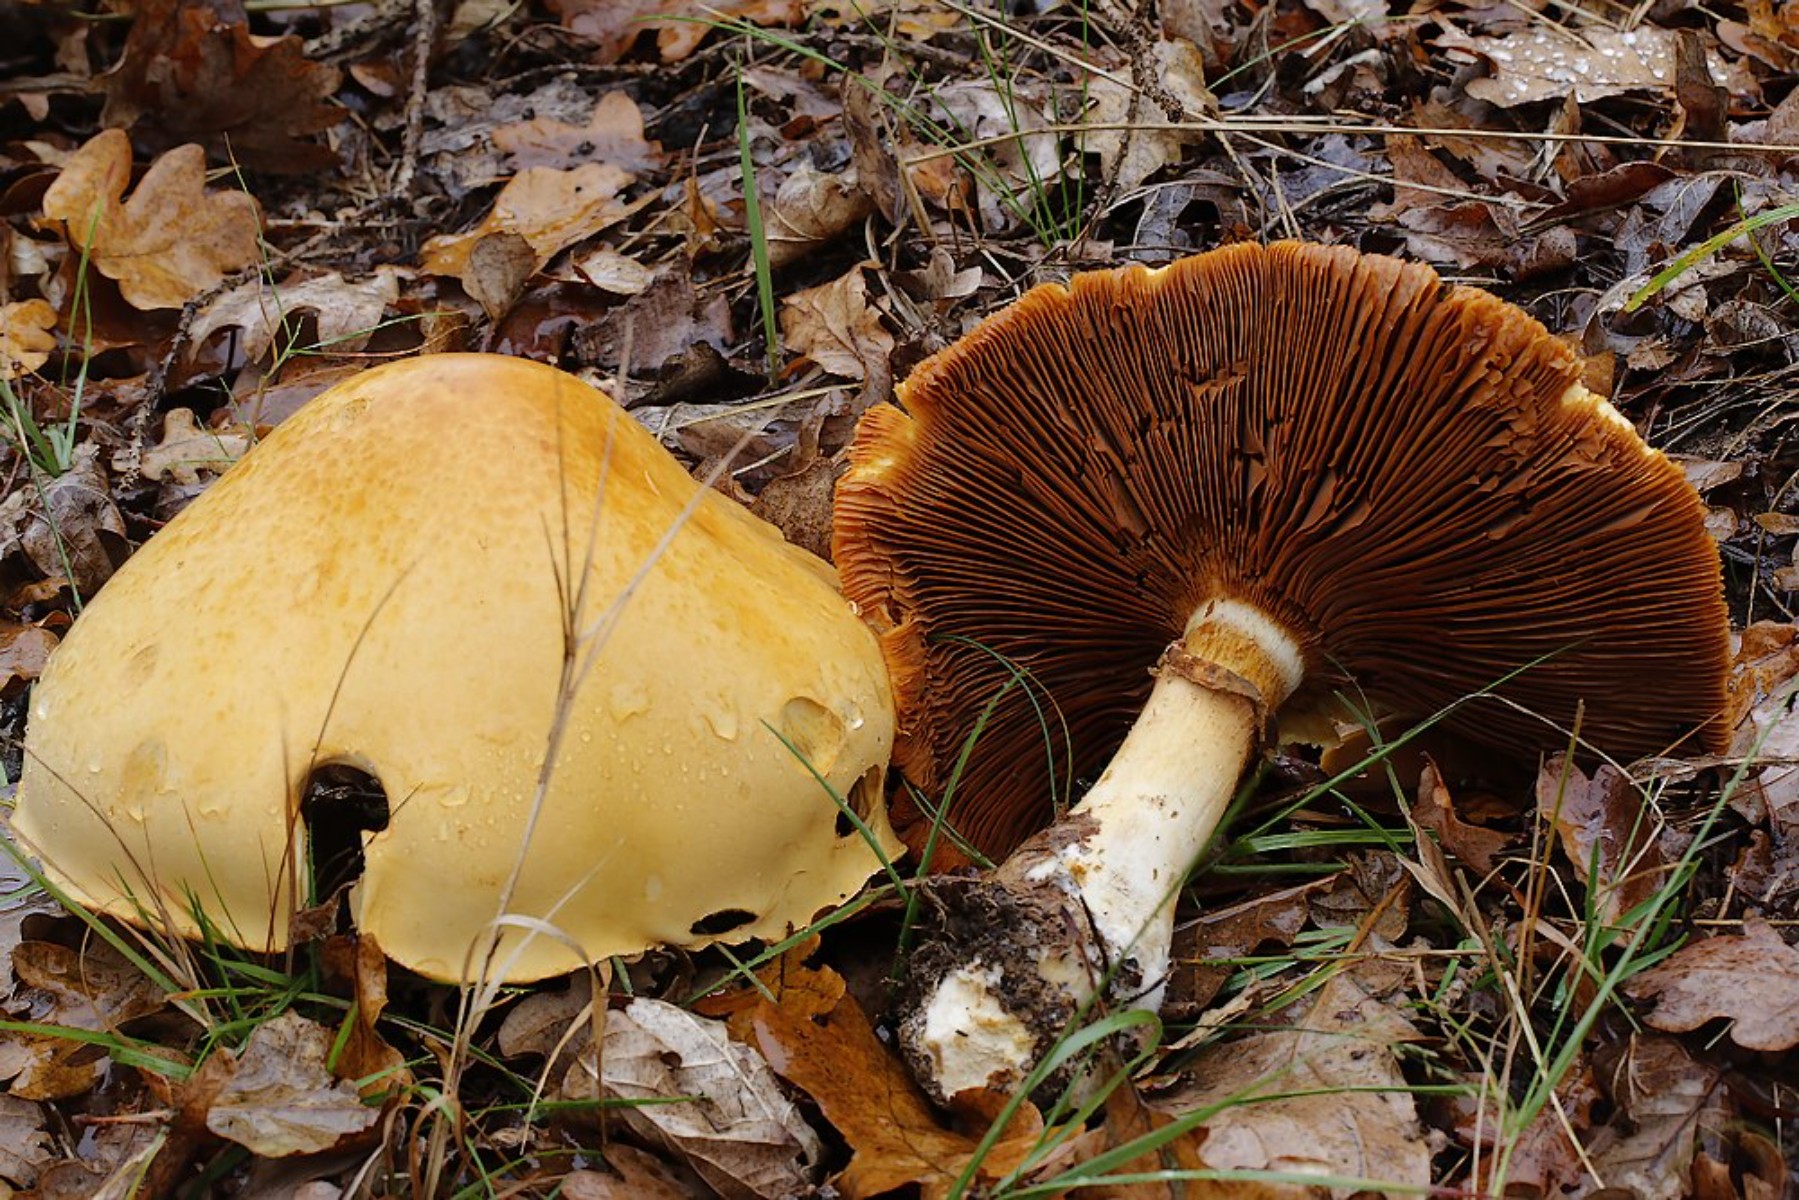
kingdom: Fungi
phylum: Basidiomycota
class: Agaricomycetes
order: Agaricales
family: Tricholomataceae
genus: Phaeolepiota
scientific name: Phaeolepiota aurea
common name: gyldenhat
